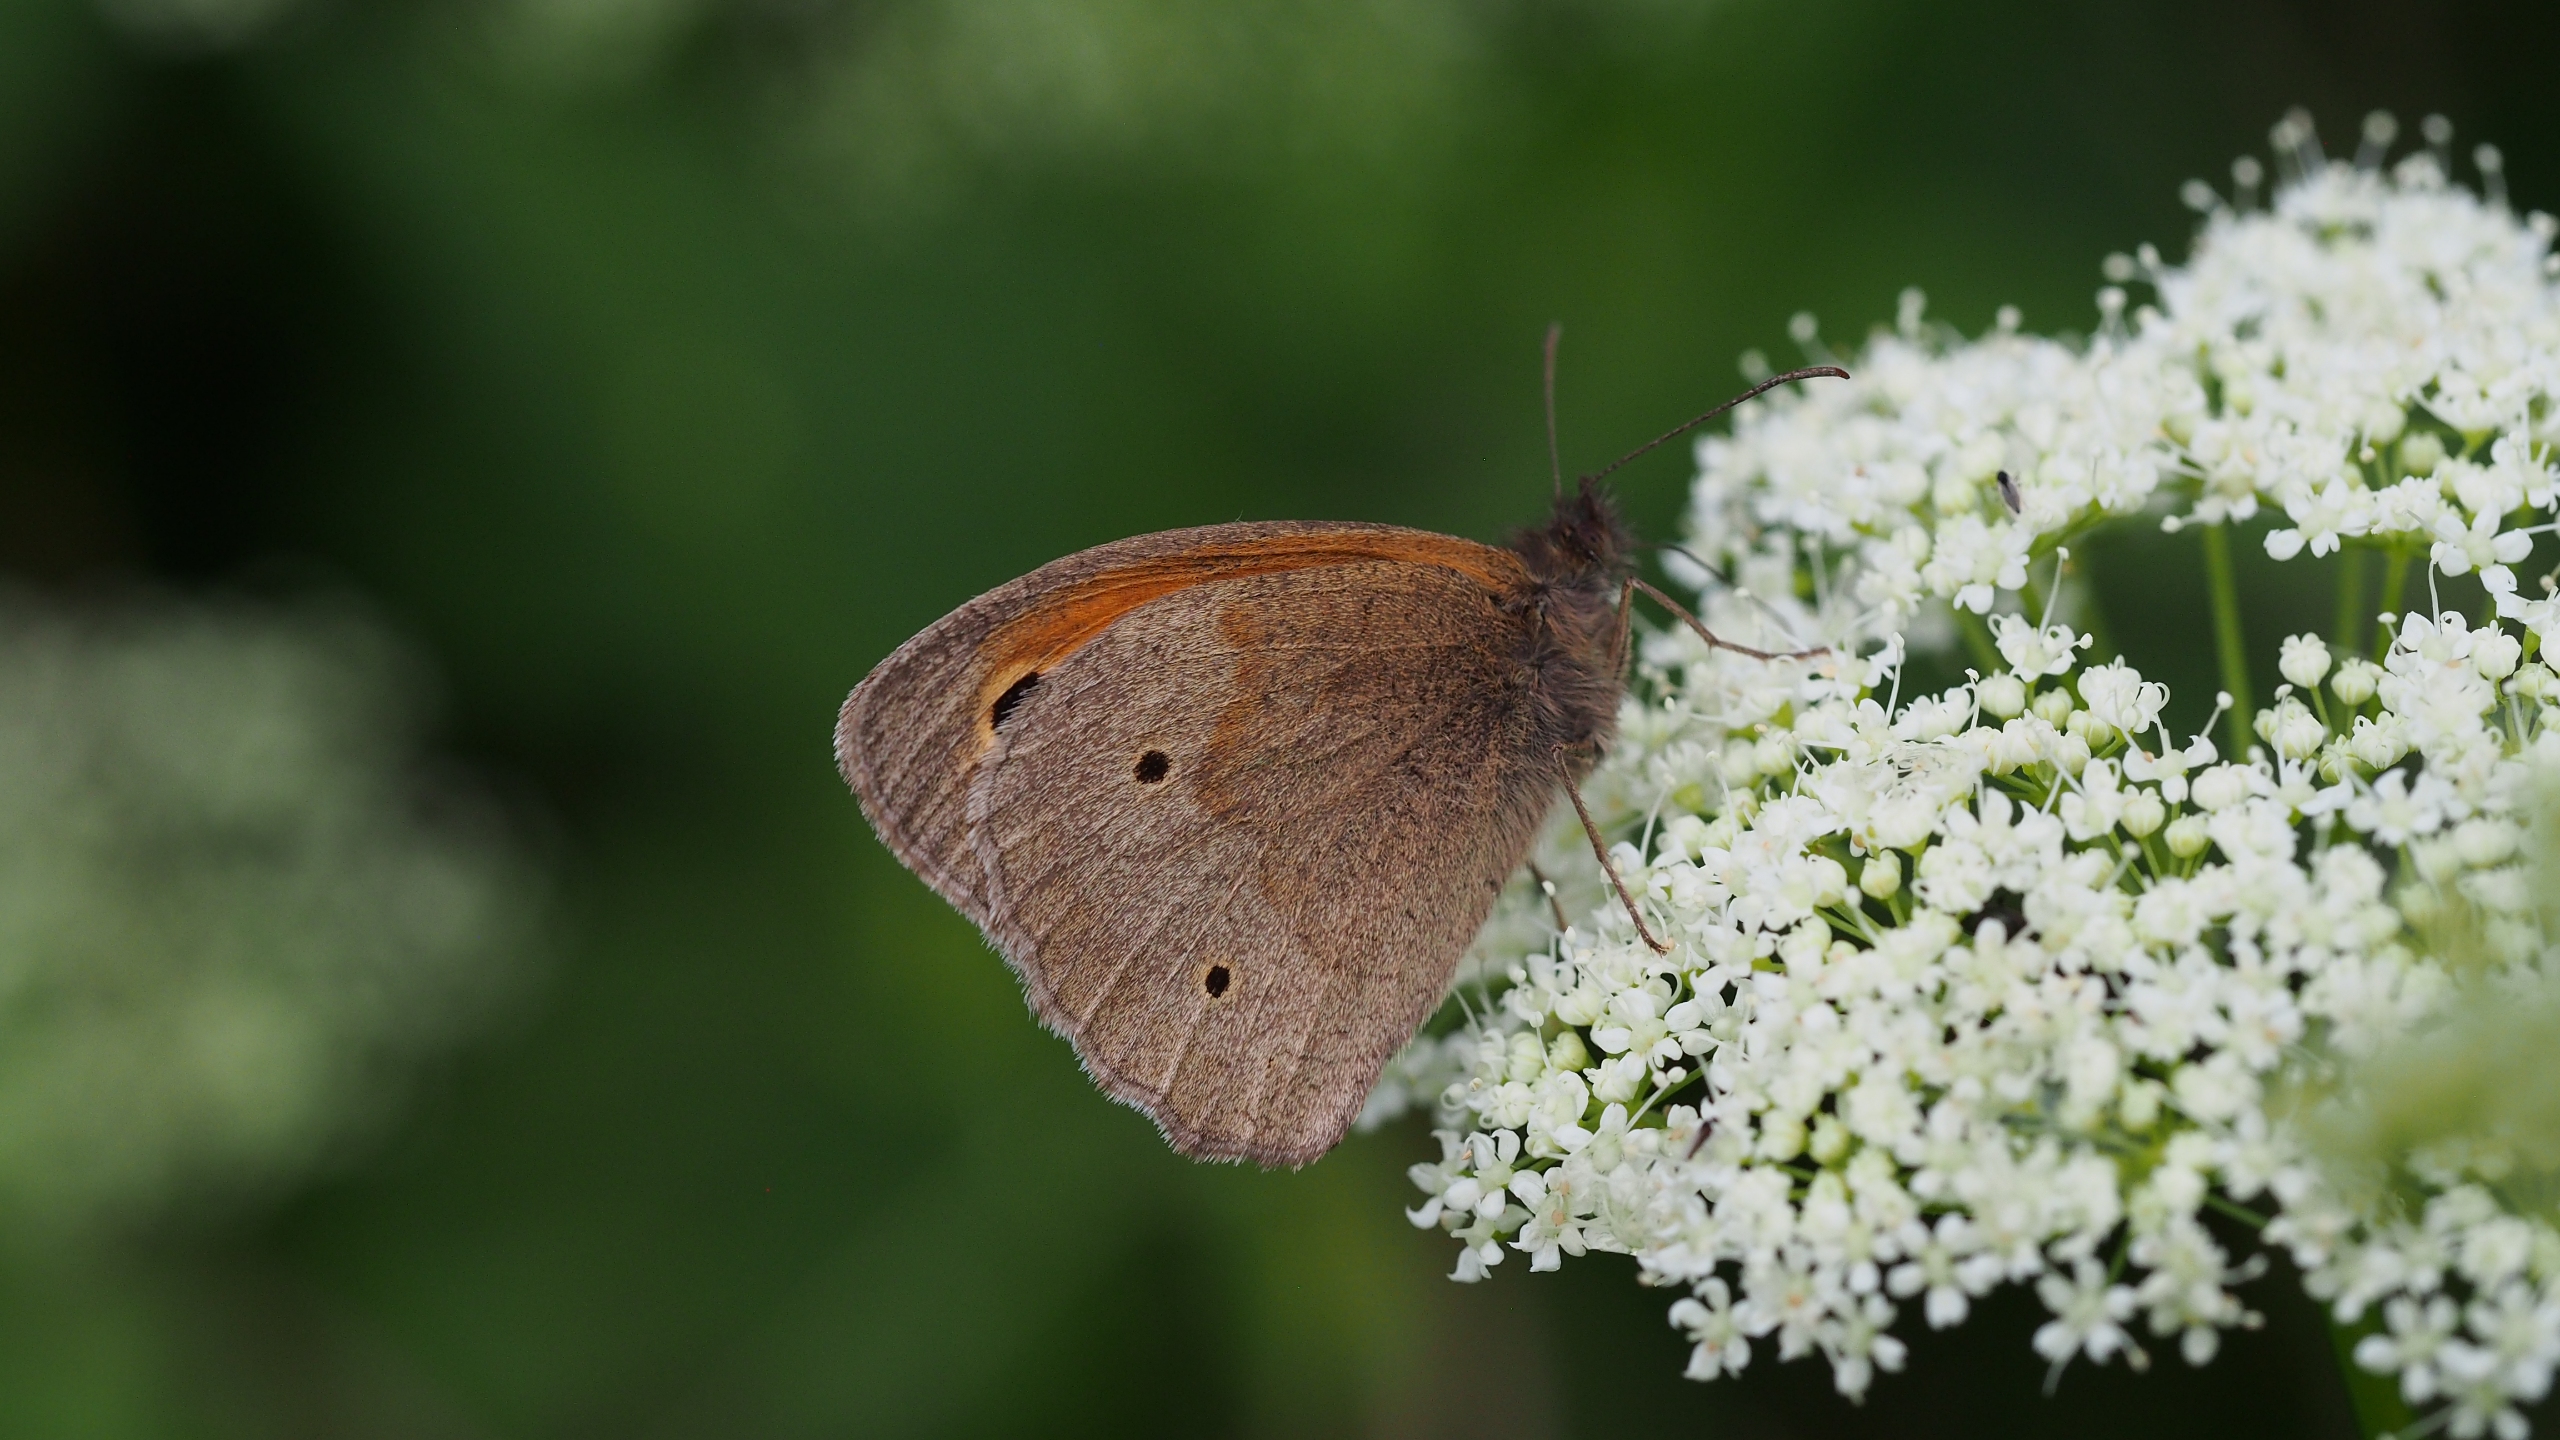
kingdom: Animalia
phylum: Arthropoda
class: Insecta
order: Lepidoptera
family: Nymphalidae
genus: Maniola
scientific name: Maniola jurtina
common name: Græsrandøje
